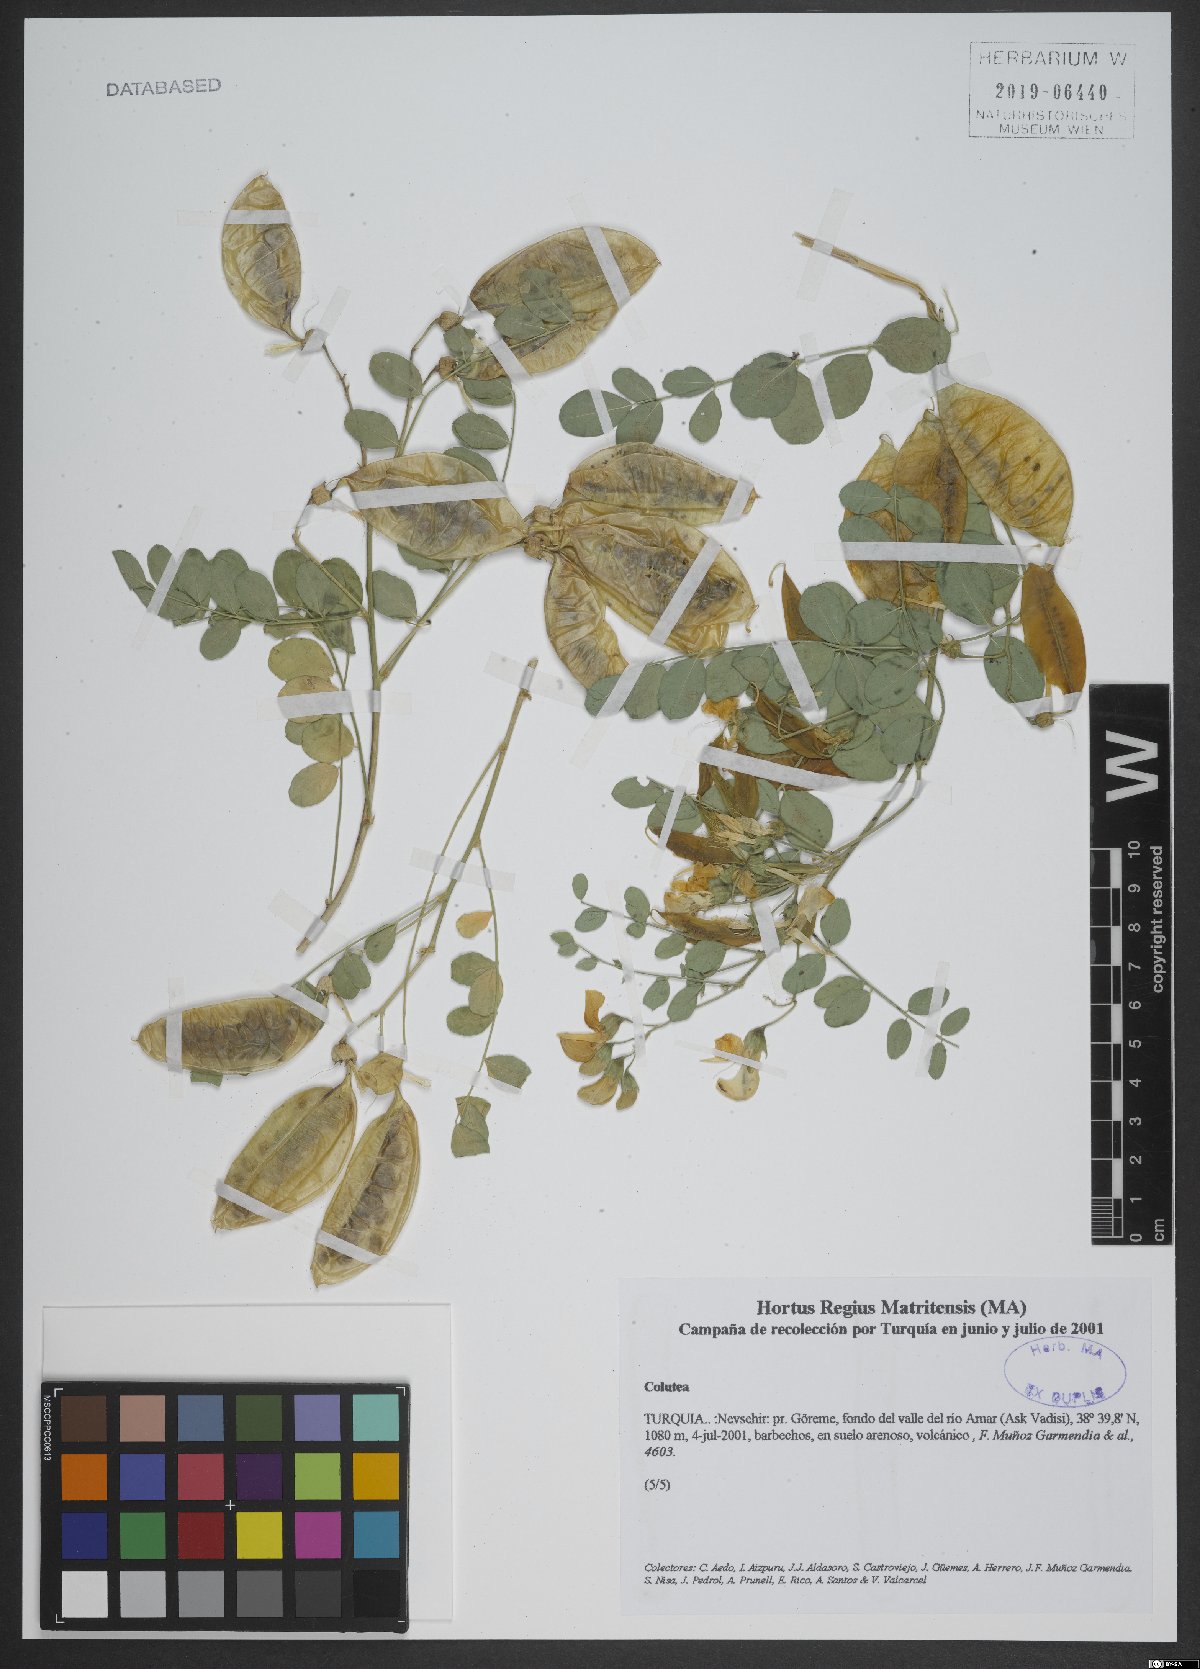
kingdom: Plantae
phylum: Tracheophyta
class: Magnoliopsida
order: Fabales
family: Fabaceae
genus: Colutea
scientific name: Colutea
